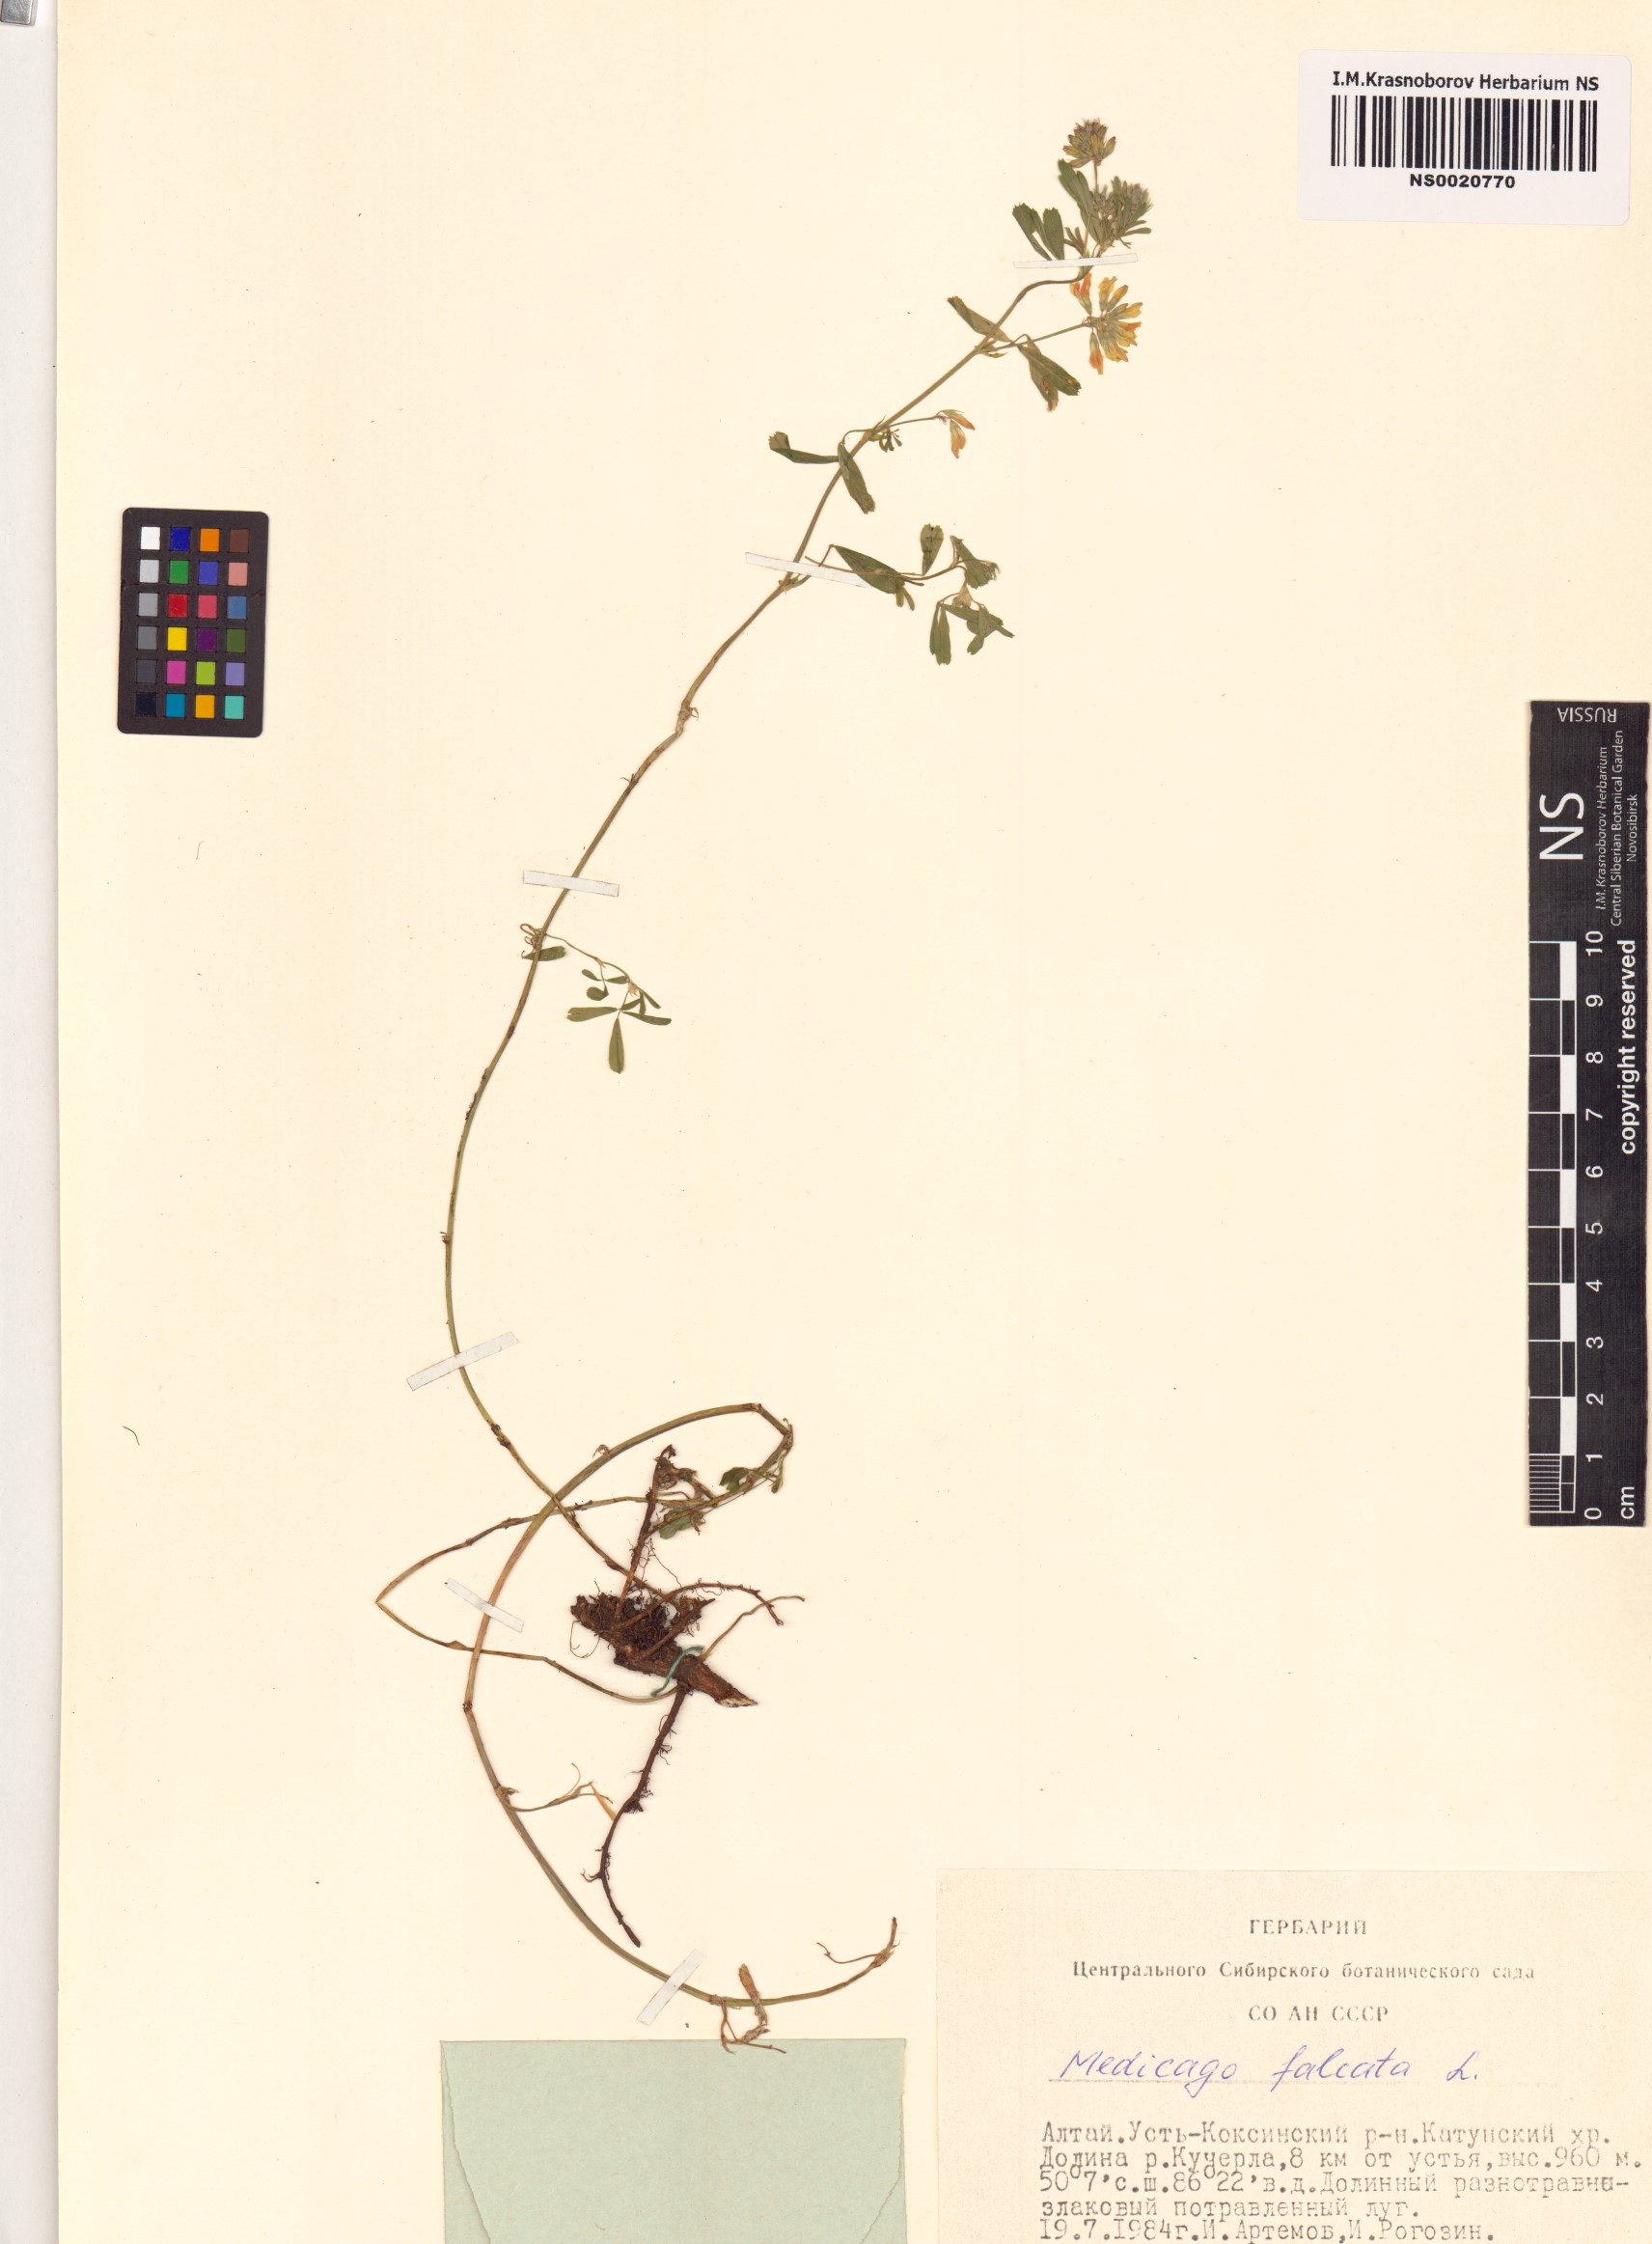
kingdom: Plantae
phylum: Tracheophyta
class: Magnoliopsida
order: Fabales
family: Fabaceae
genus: Medicago
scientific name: Medicago falcata
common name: Sickle medick
